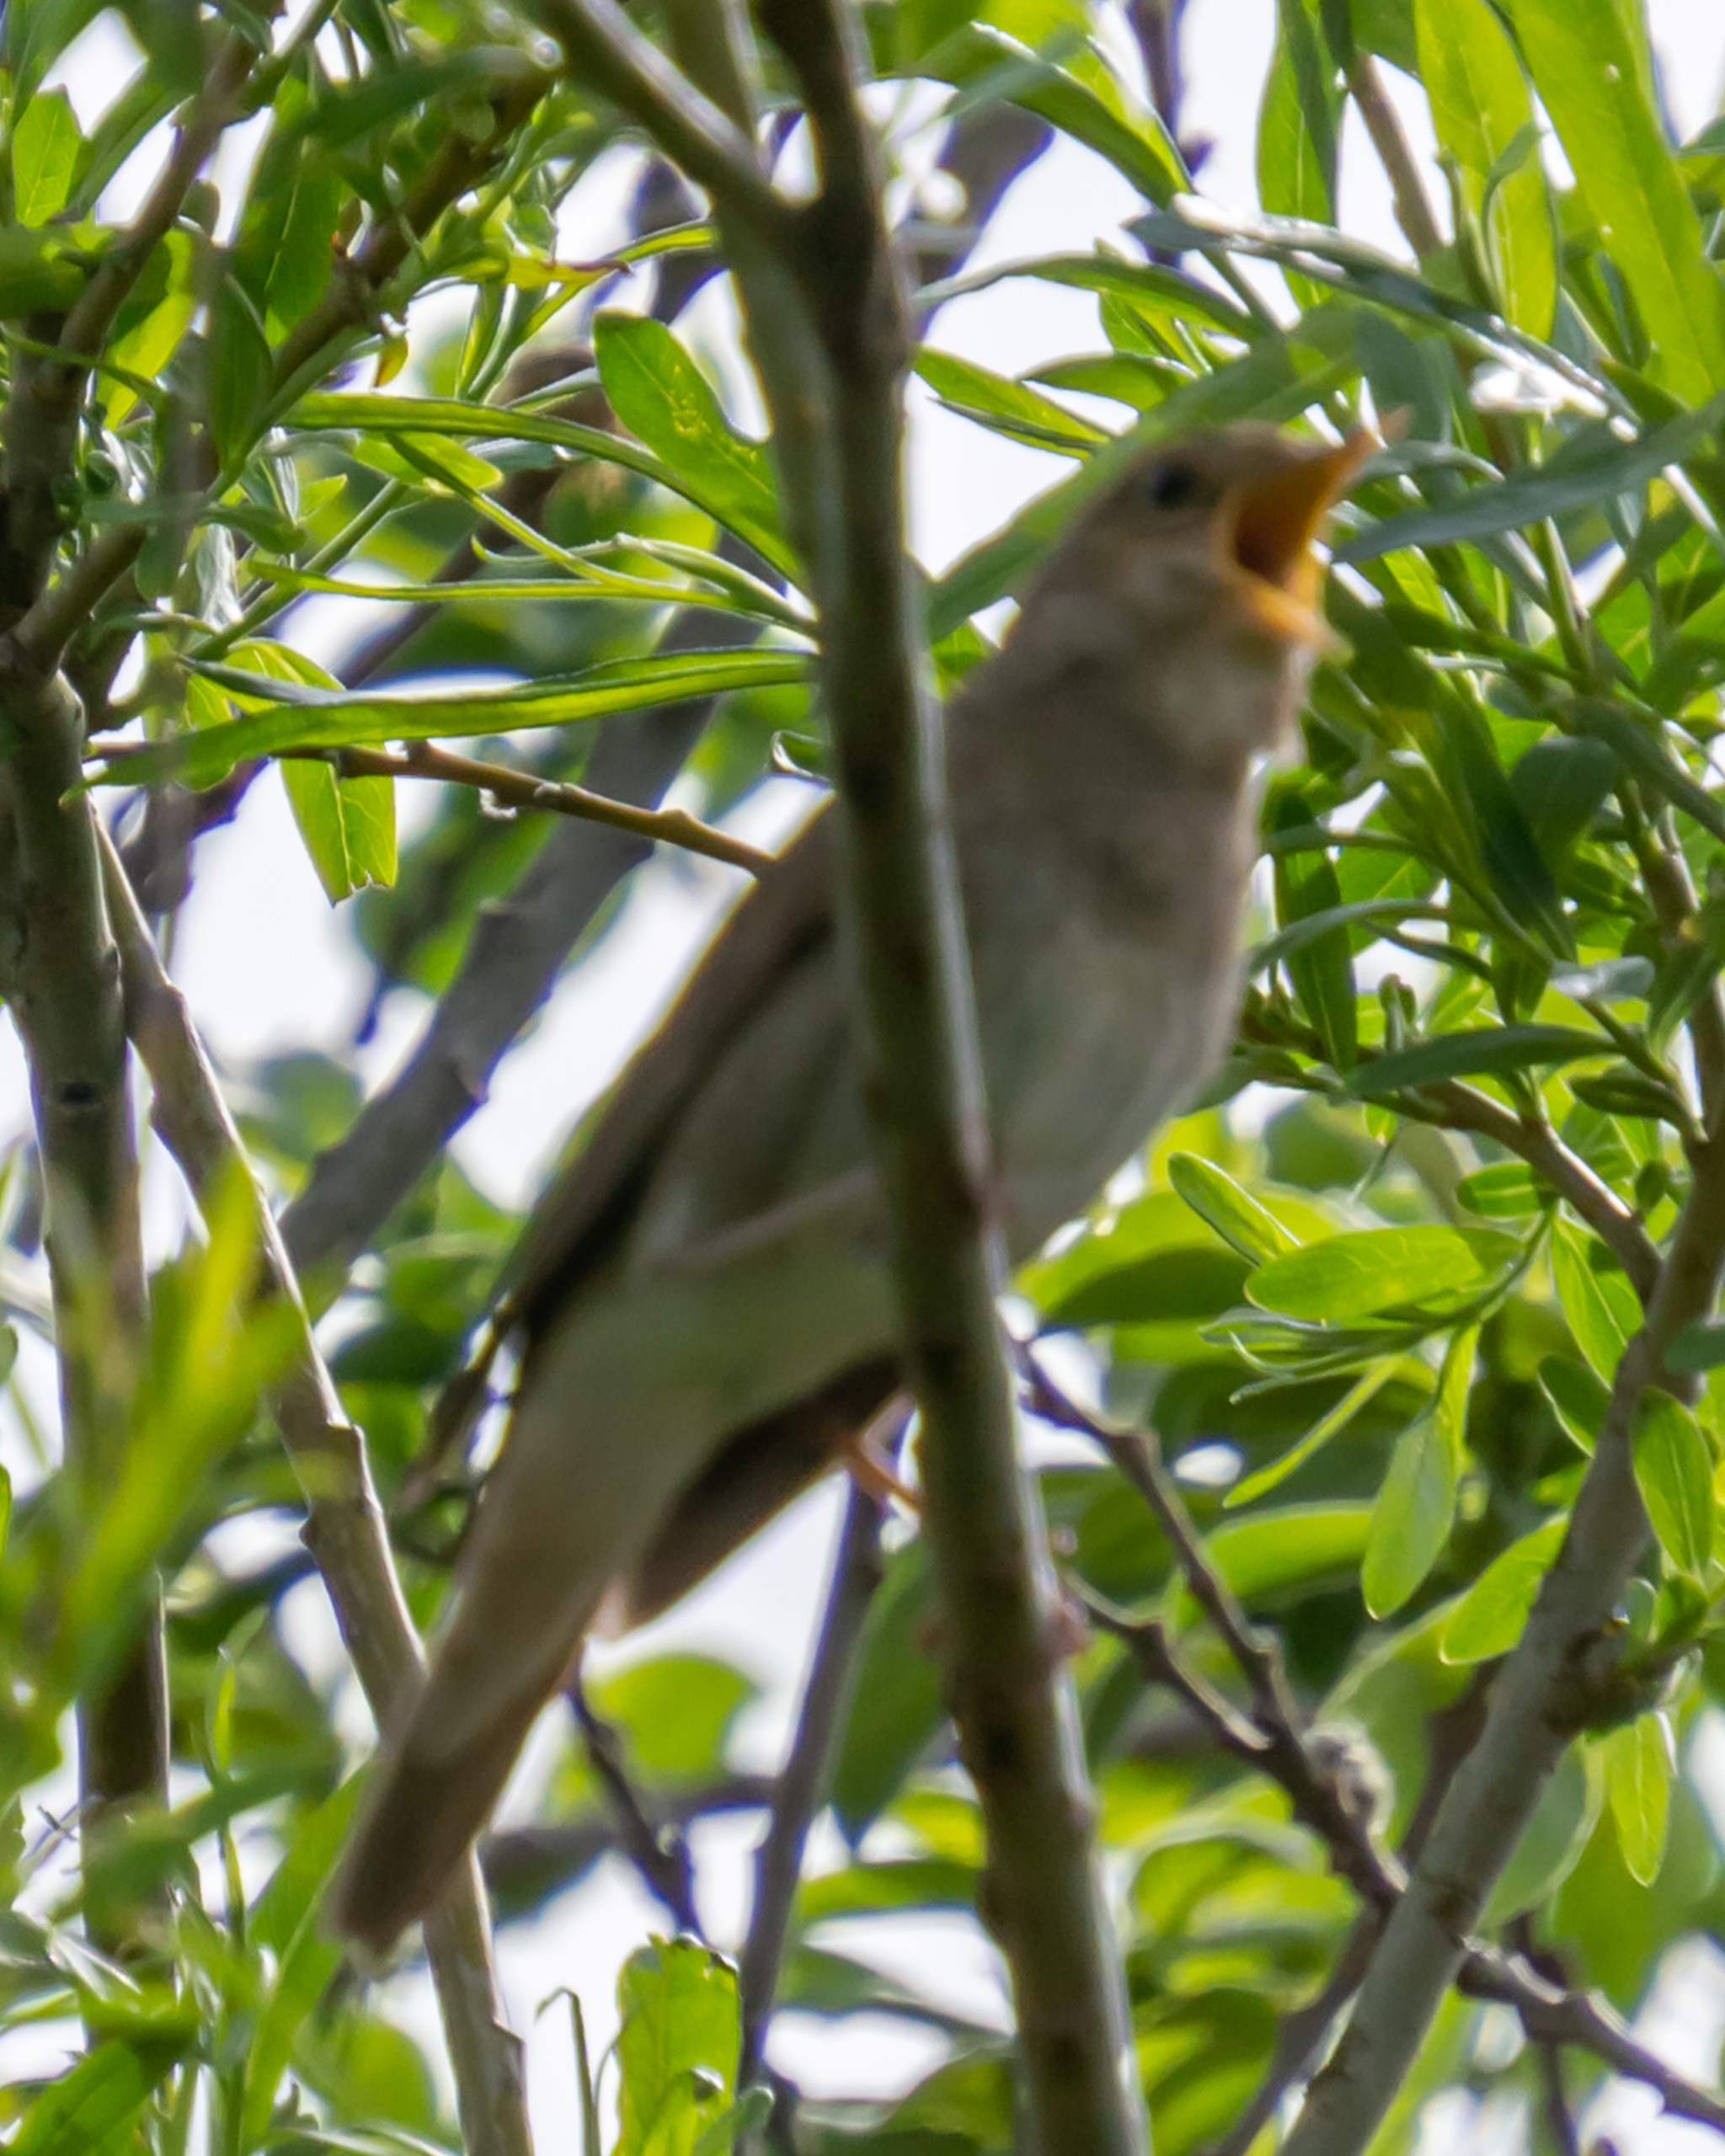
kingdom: Animalia
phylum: Chordata
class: Aves
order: Passeriformes
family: Muscicapidae
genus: Luscinia
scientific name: Luscinia luscinia
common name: Nattergal
